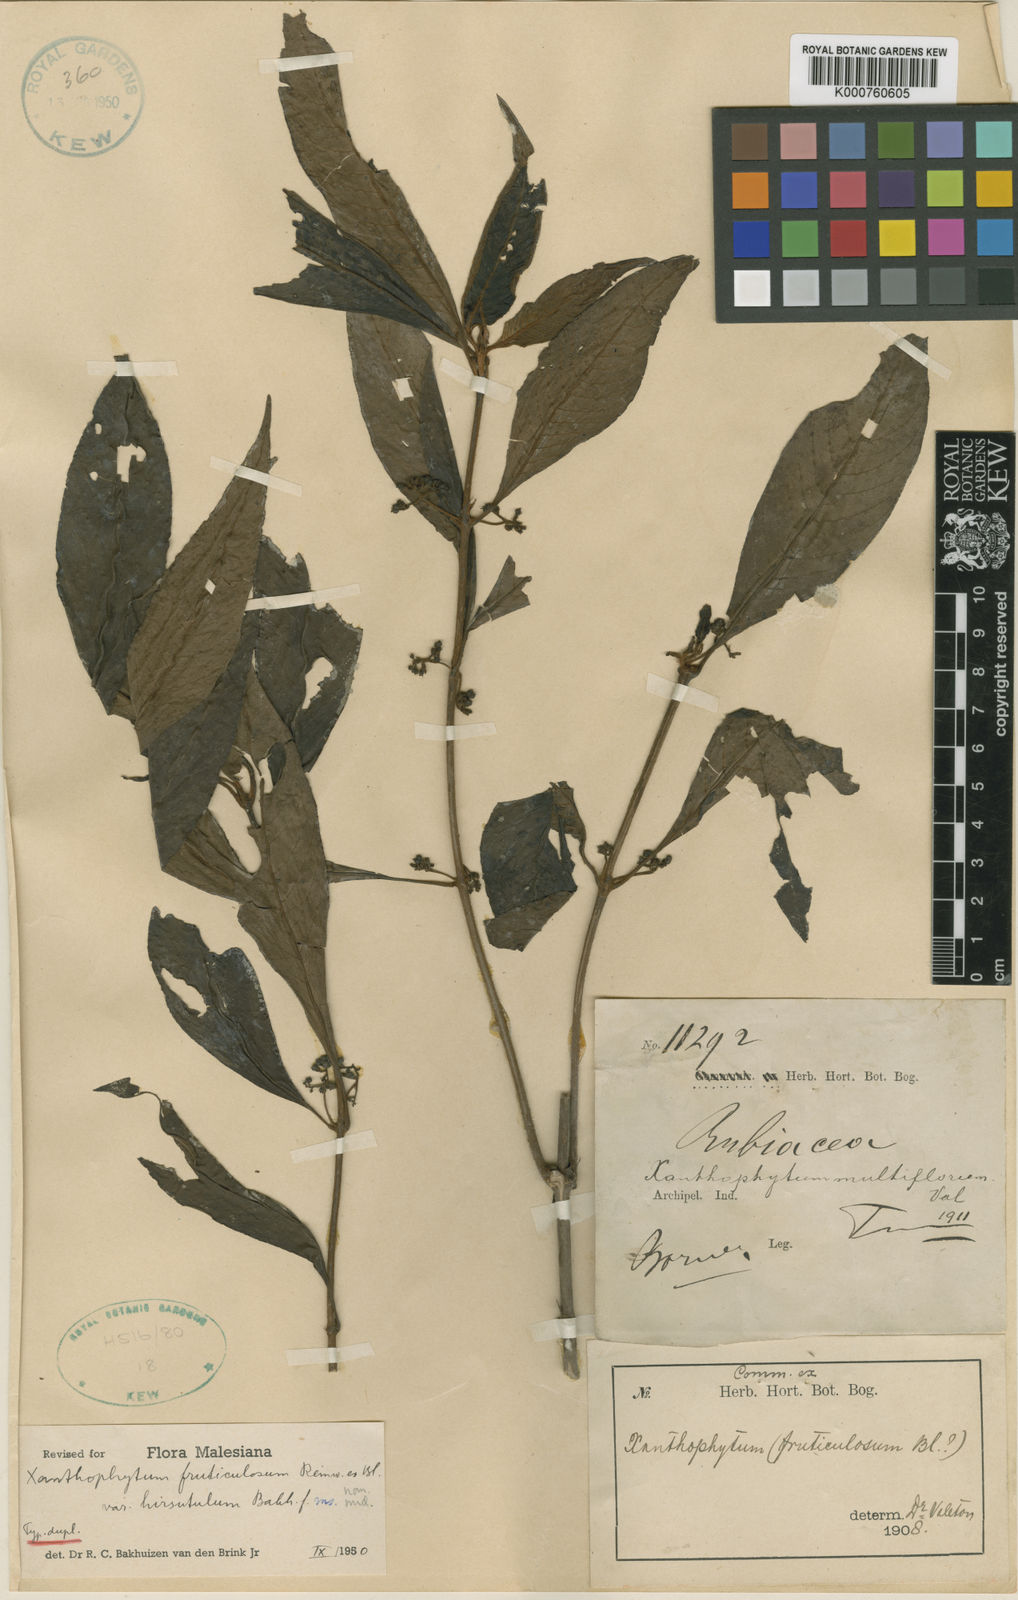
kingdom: Plantae
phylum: Tracheophyta
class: Magnoliopsida
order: Gentianales
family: Rubiaceae
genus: Xanthophytum
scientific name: Xanthophytum fruticulosum
